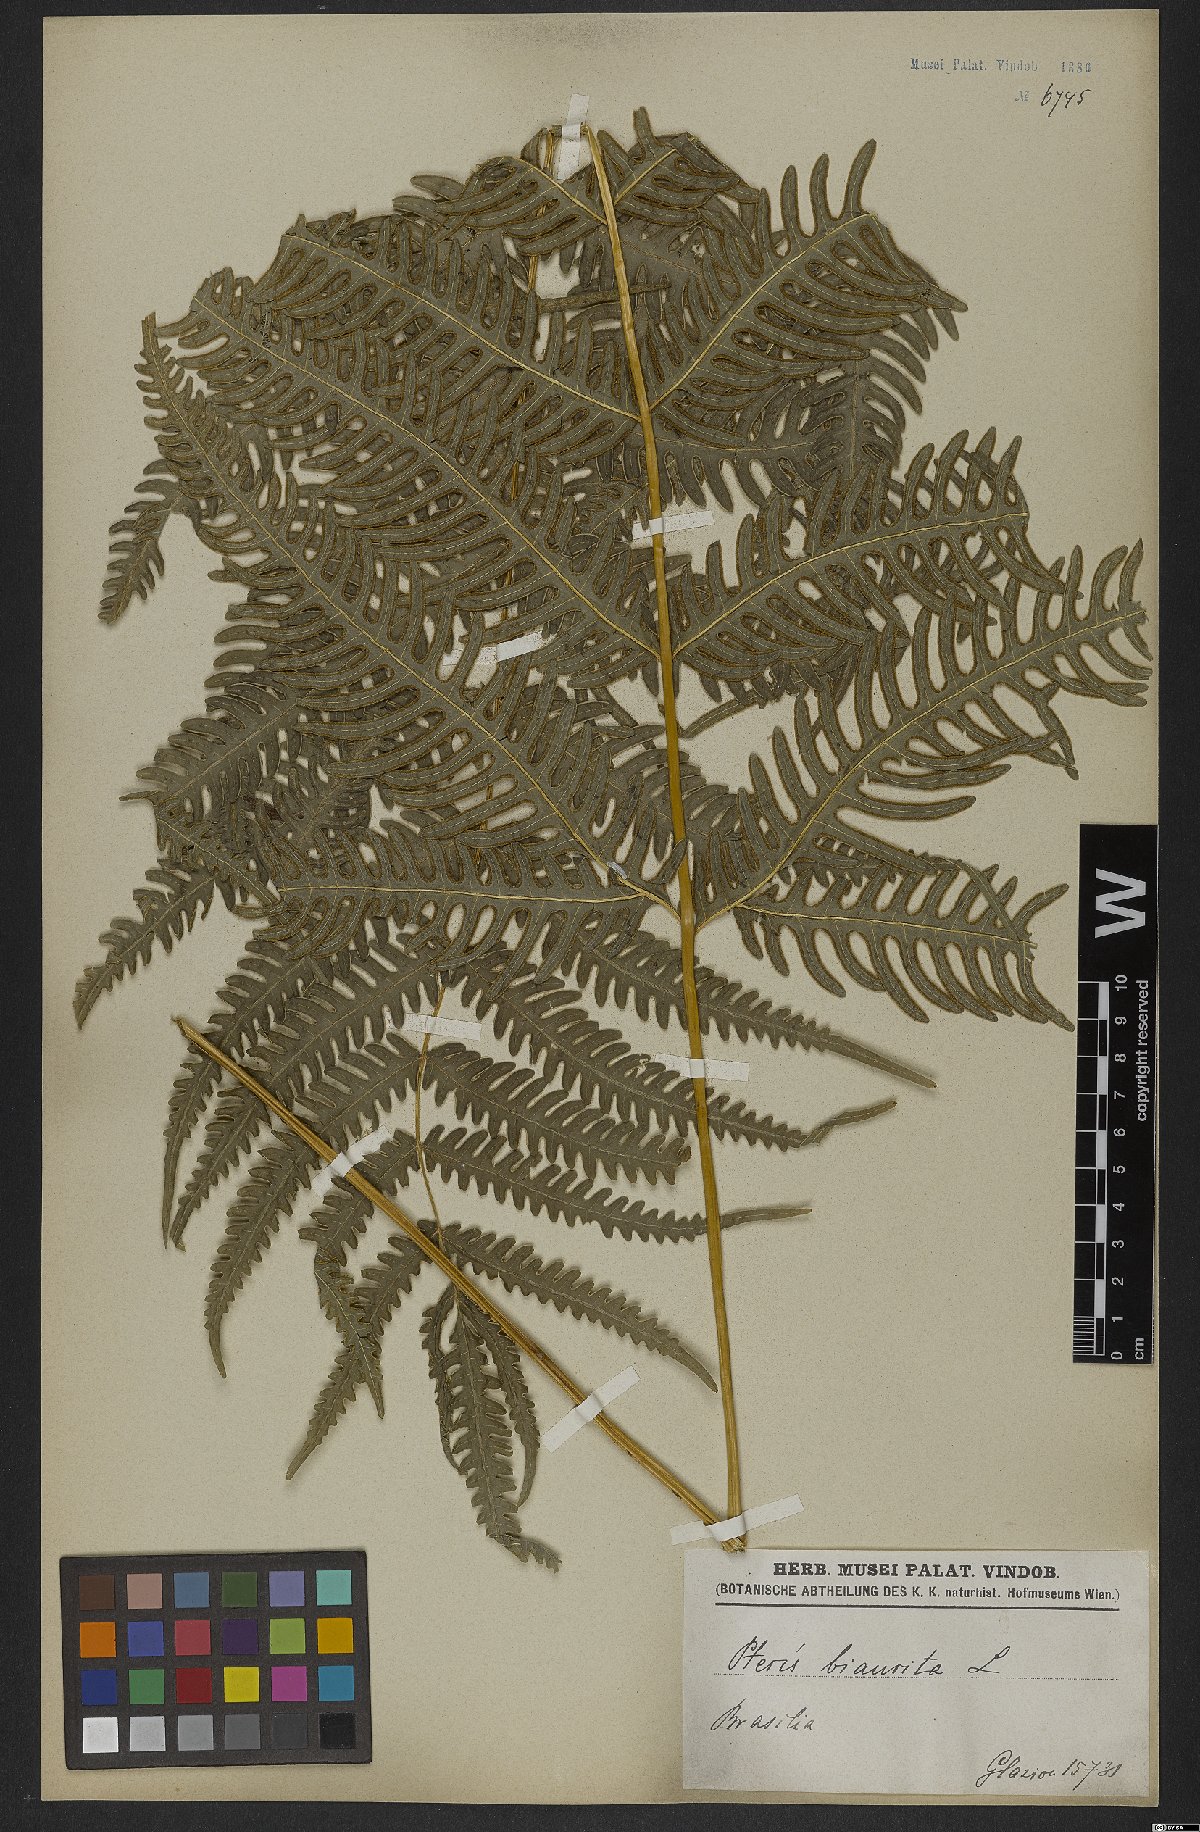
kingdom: Plantae
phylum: Tracheophyta
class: Polypodiopsida
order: Polypodiales
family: Pteridaceae
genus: Pteris
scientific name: Pteris biaurita
